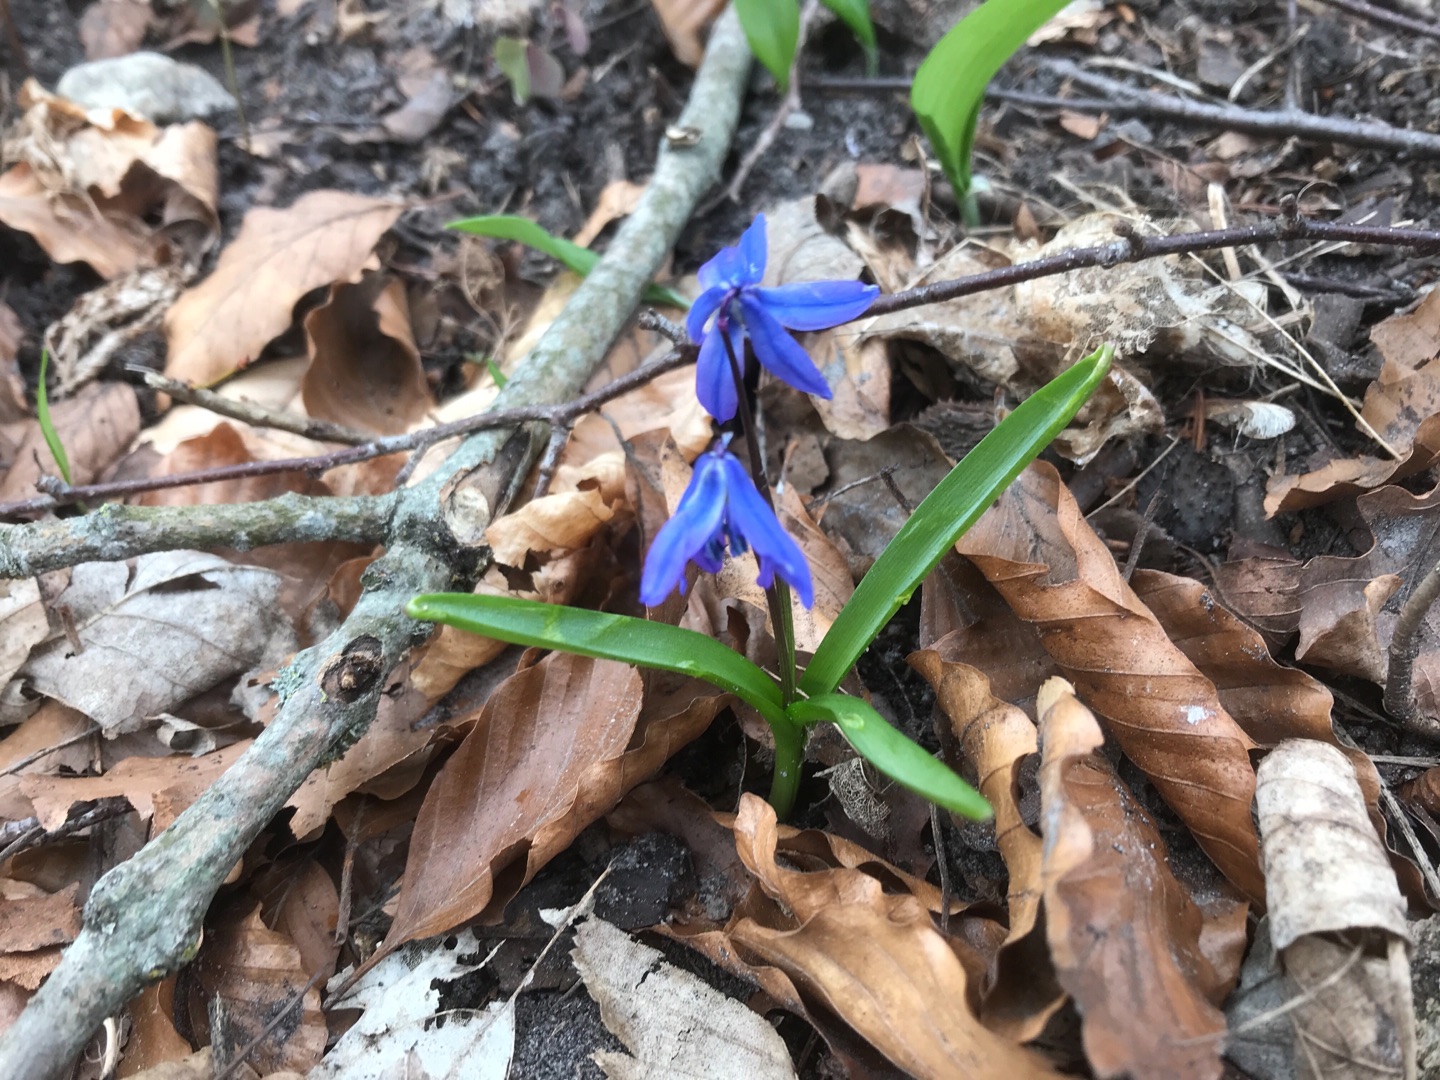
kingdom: Plantae
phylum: Tracheophyta
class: Liliopsida
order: Asparagales
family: Asparagaceae
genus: Scilla
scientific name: Scilla siberica
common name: Russisk skilla
